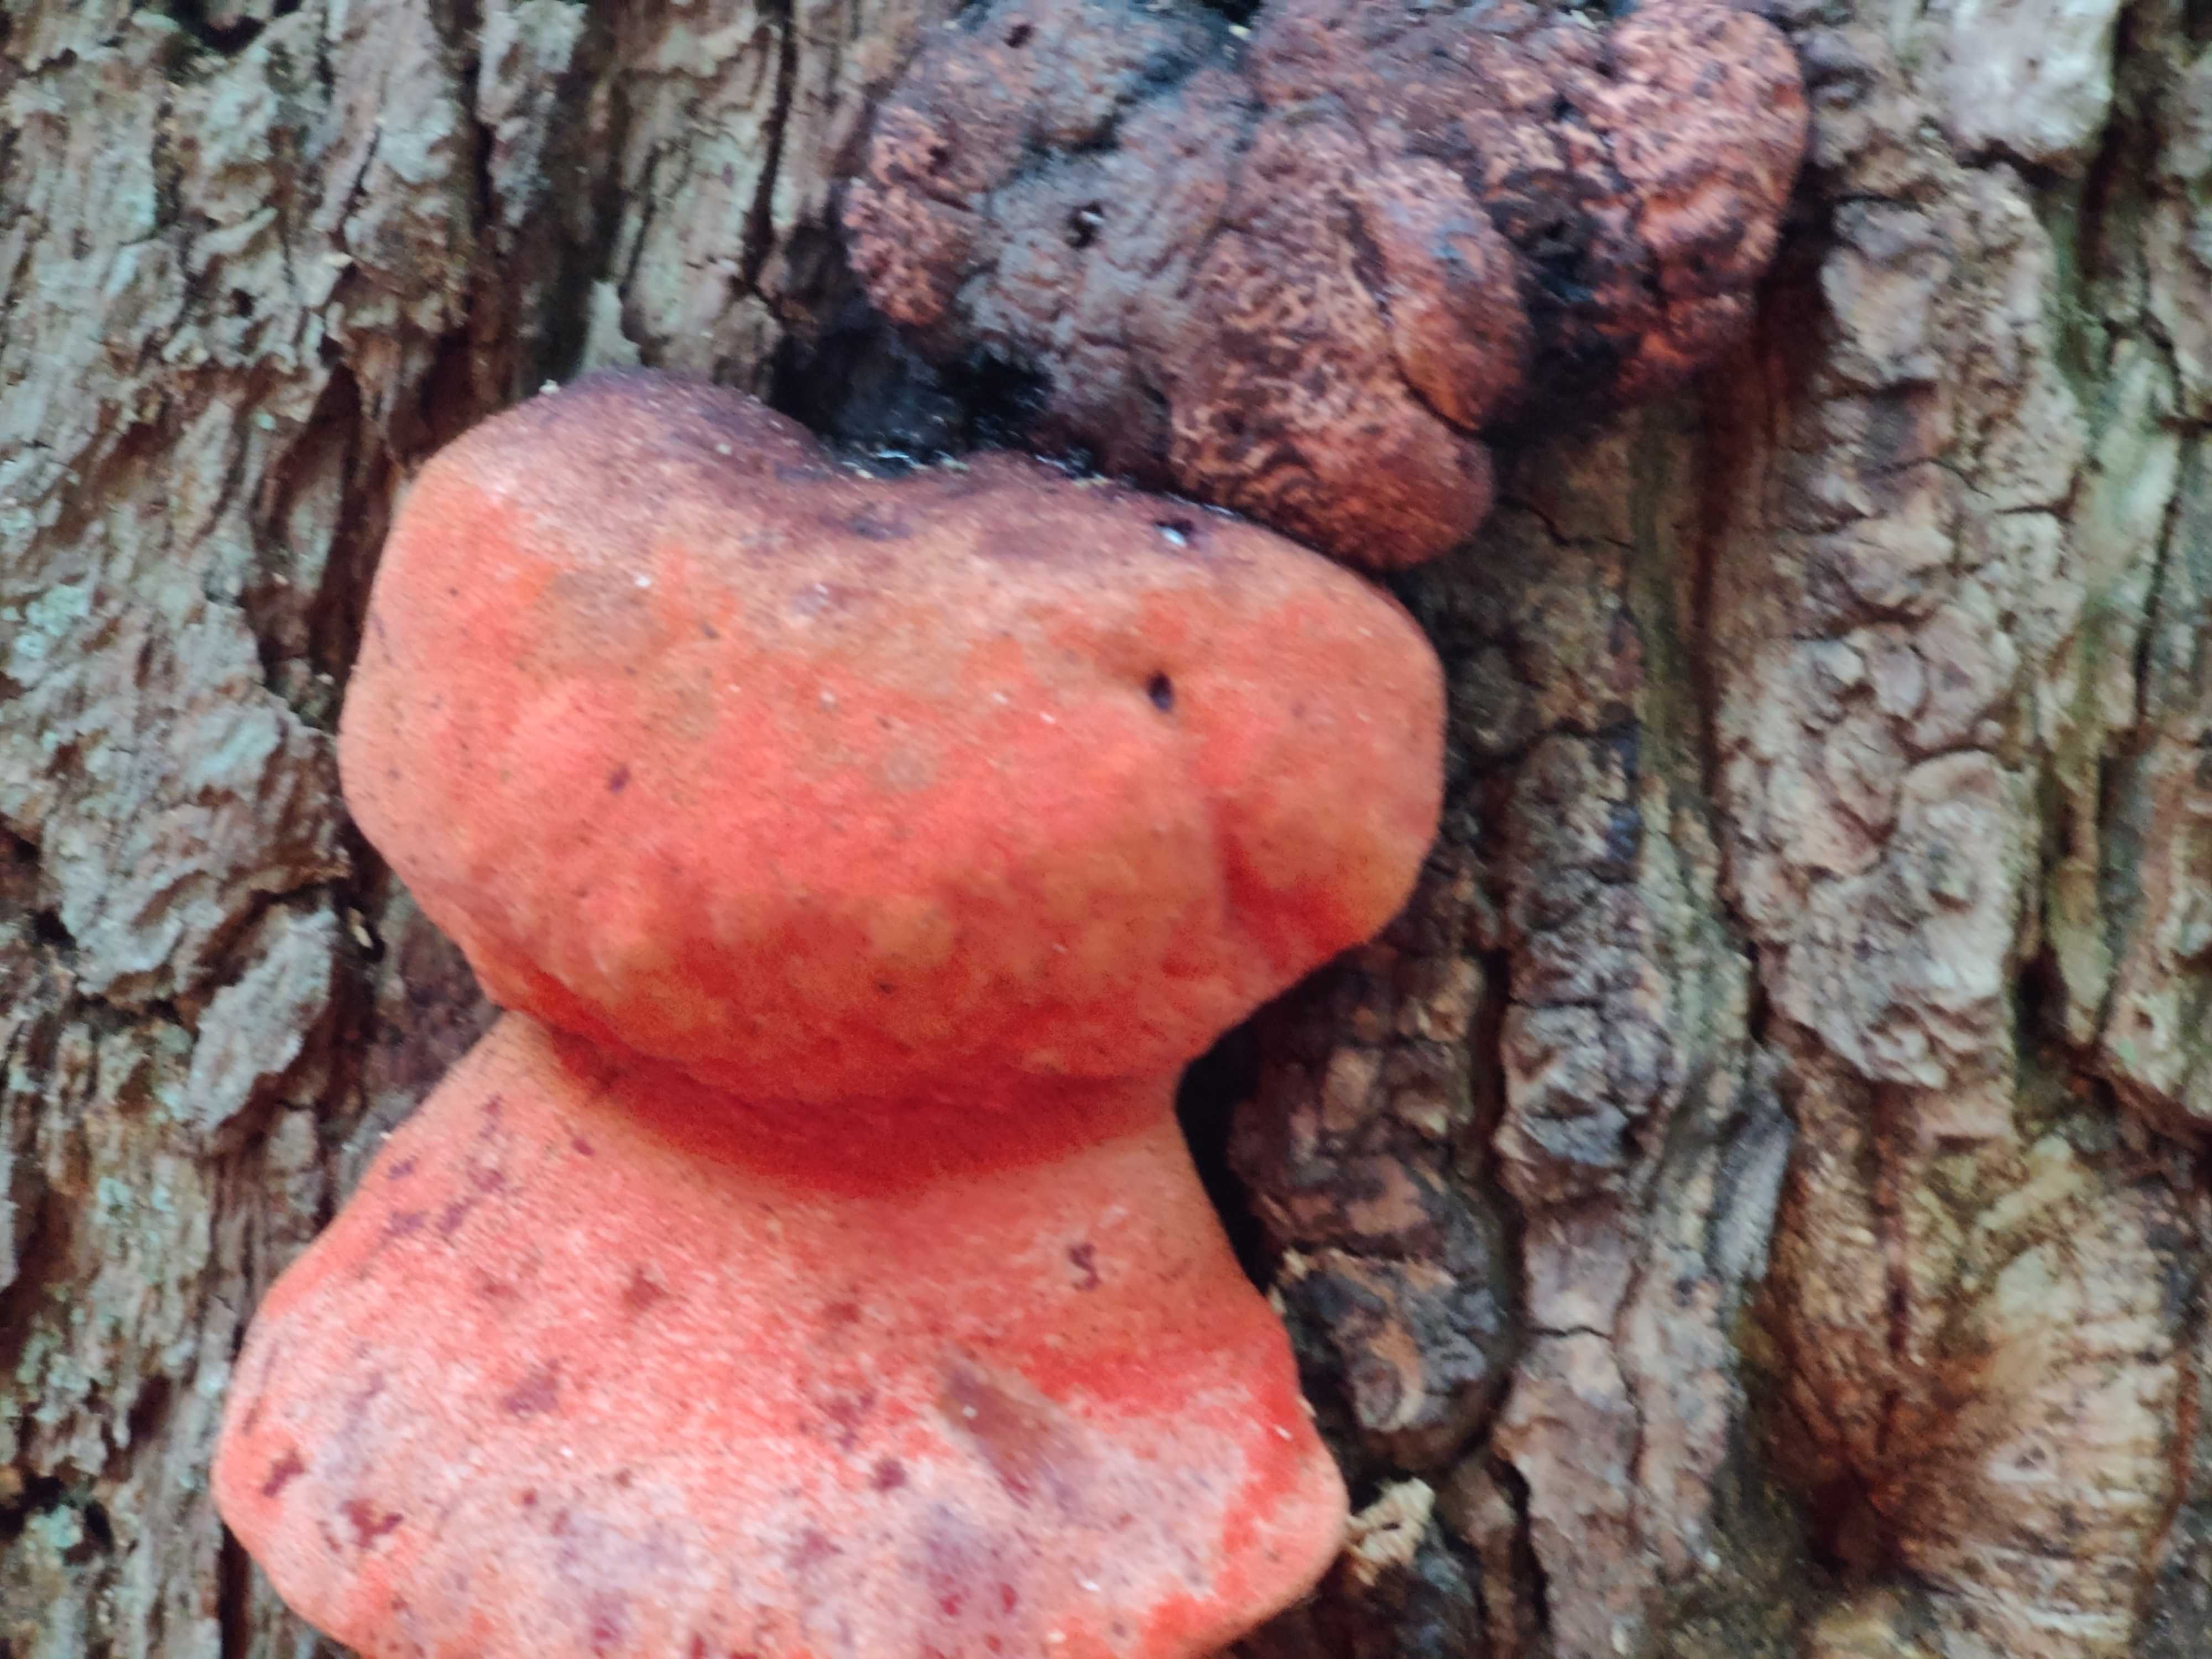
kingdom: Fungi
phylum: Basidiomycota
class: Agaricomycetes
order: Agaricales
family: Fistulinaceae
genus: Fistulina
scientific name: Fistulina hepatica
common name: oksetunge
